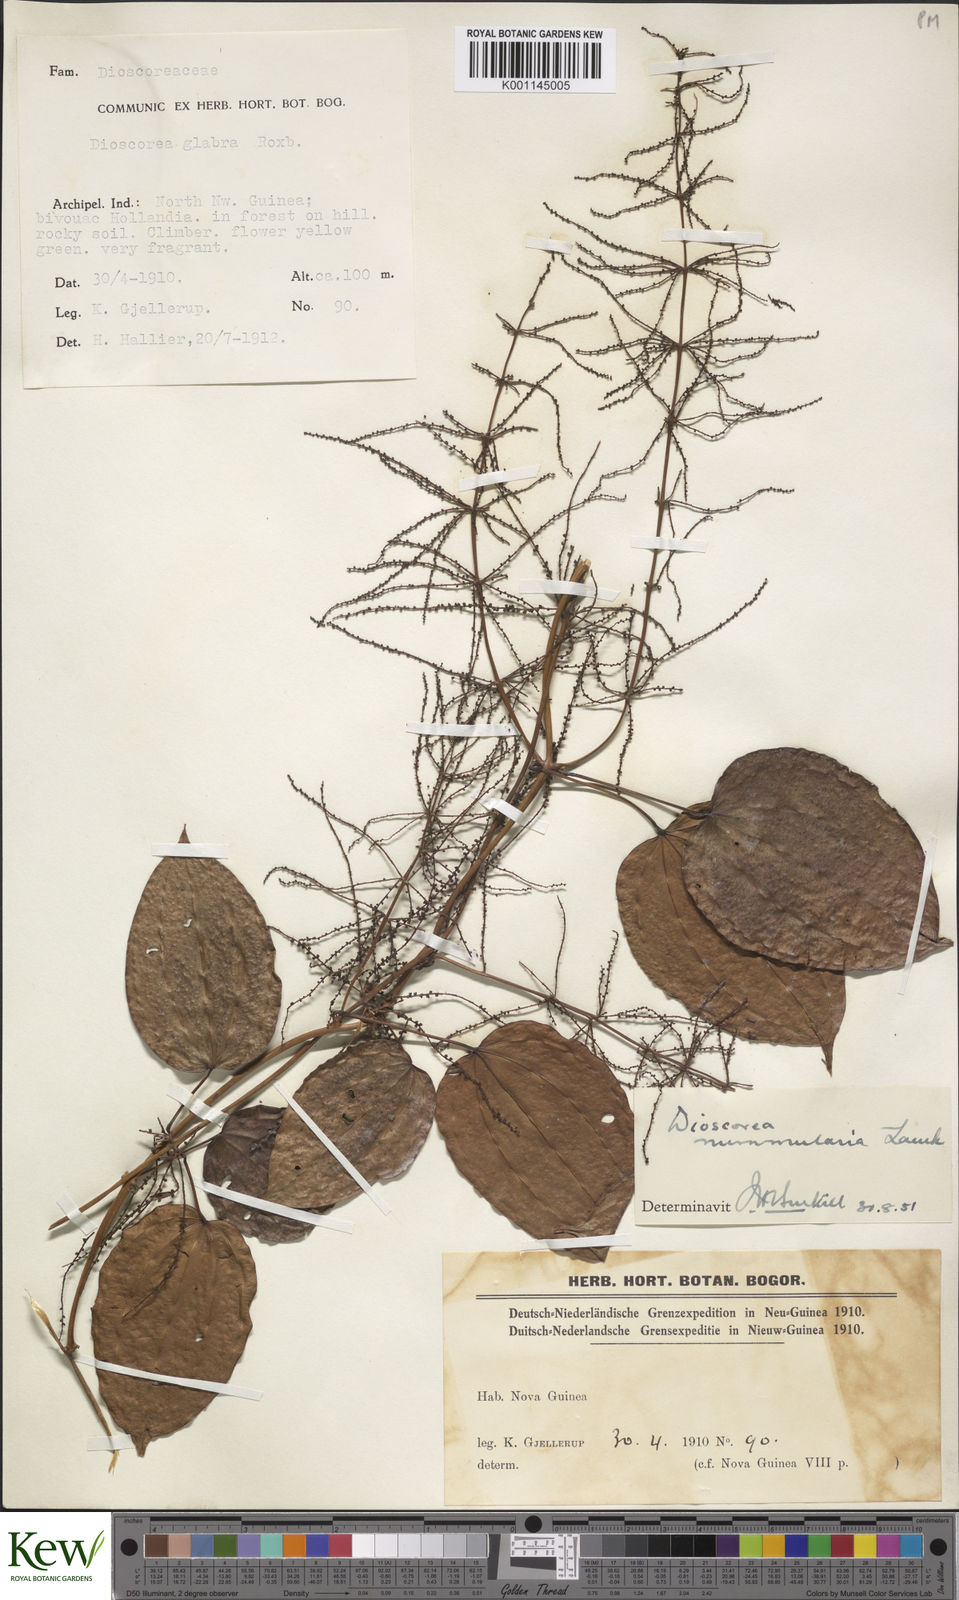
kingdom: Plantae
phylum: Tracheophyta
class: Liliopsida
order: Dioscoreales
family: Dioscoreaceae
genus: Dioscorea
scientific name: Dioscorea nummularia
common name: Pacific yam
